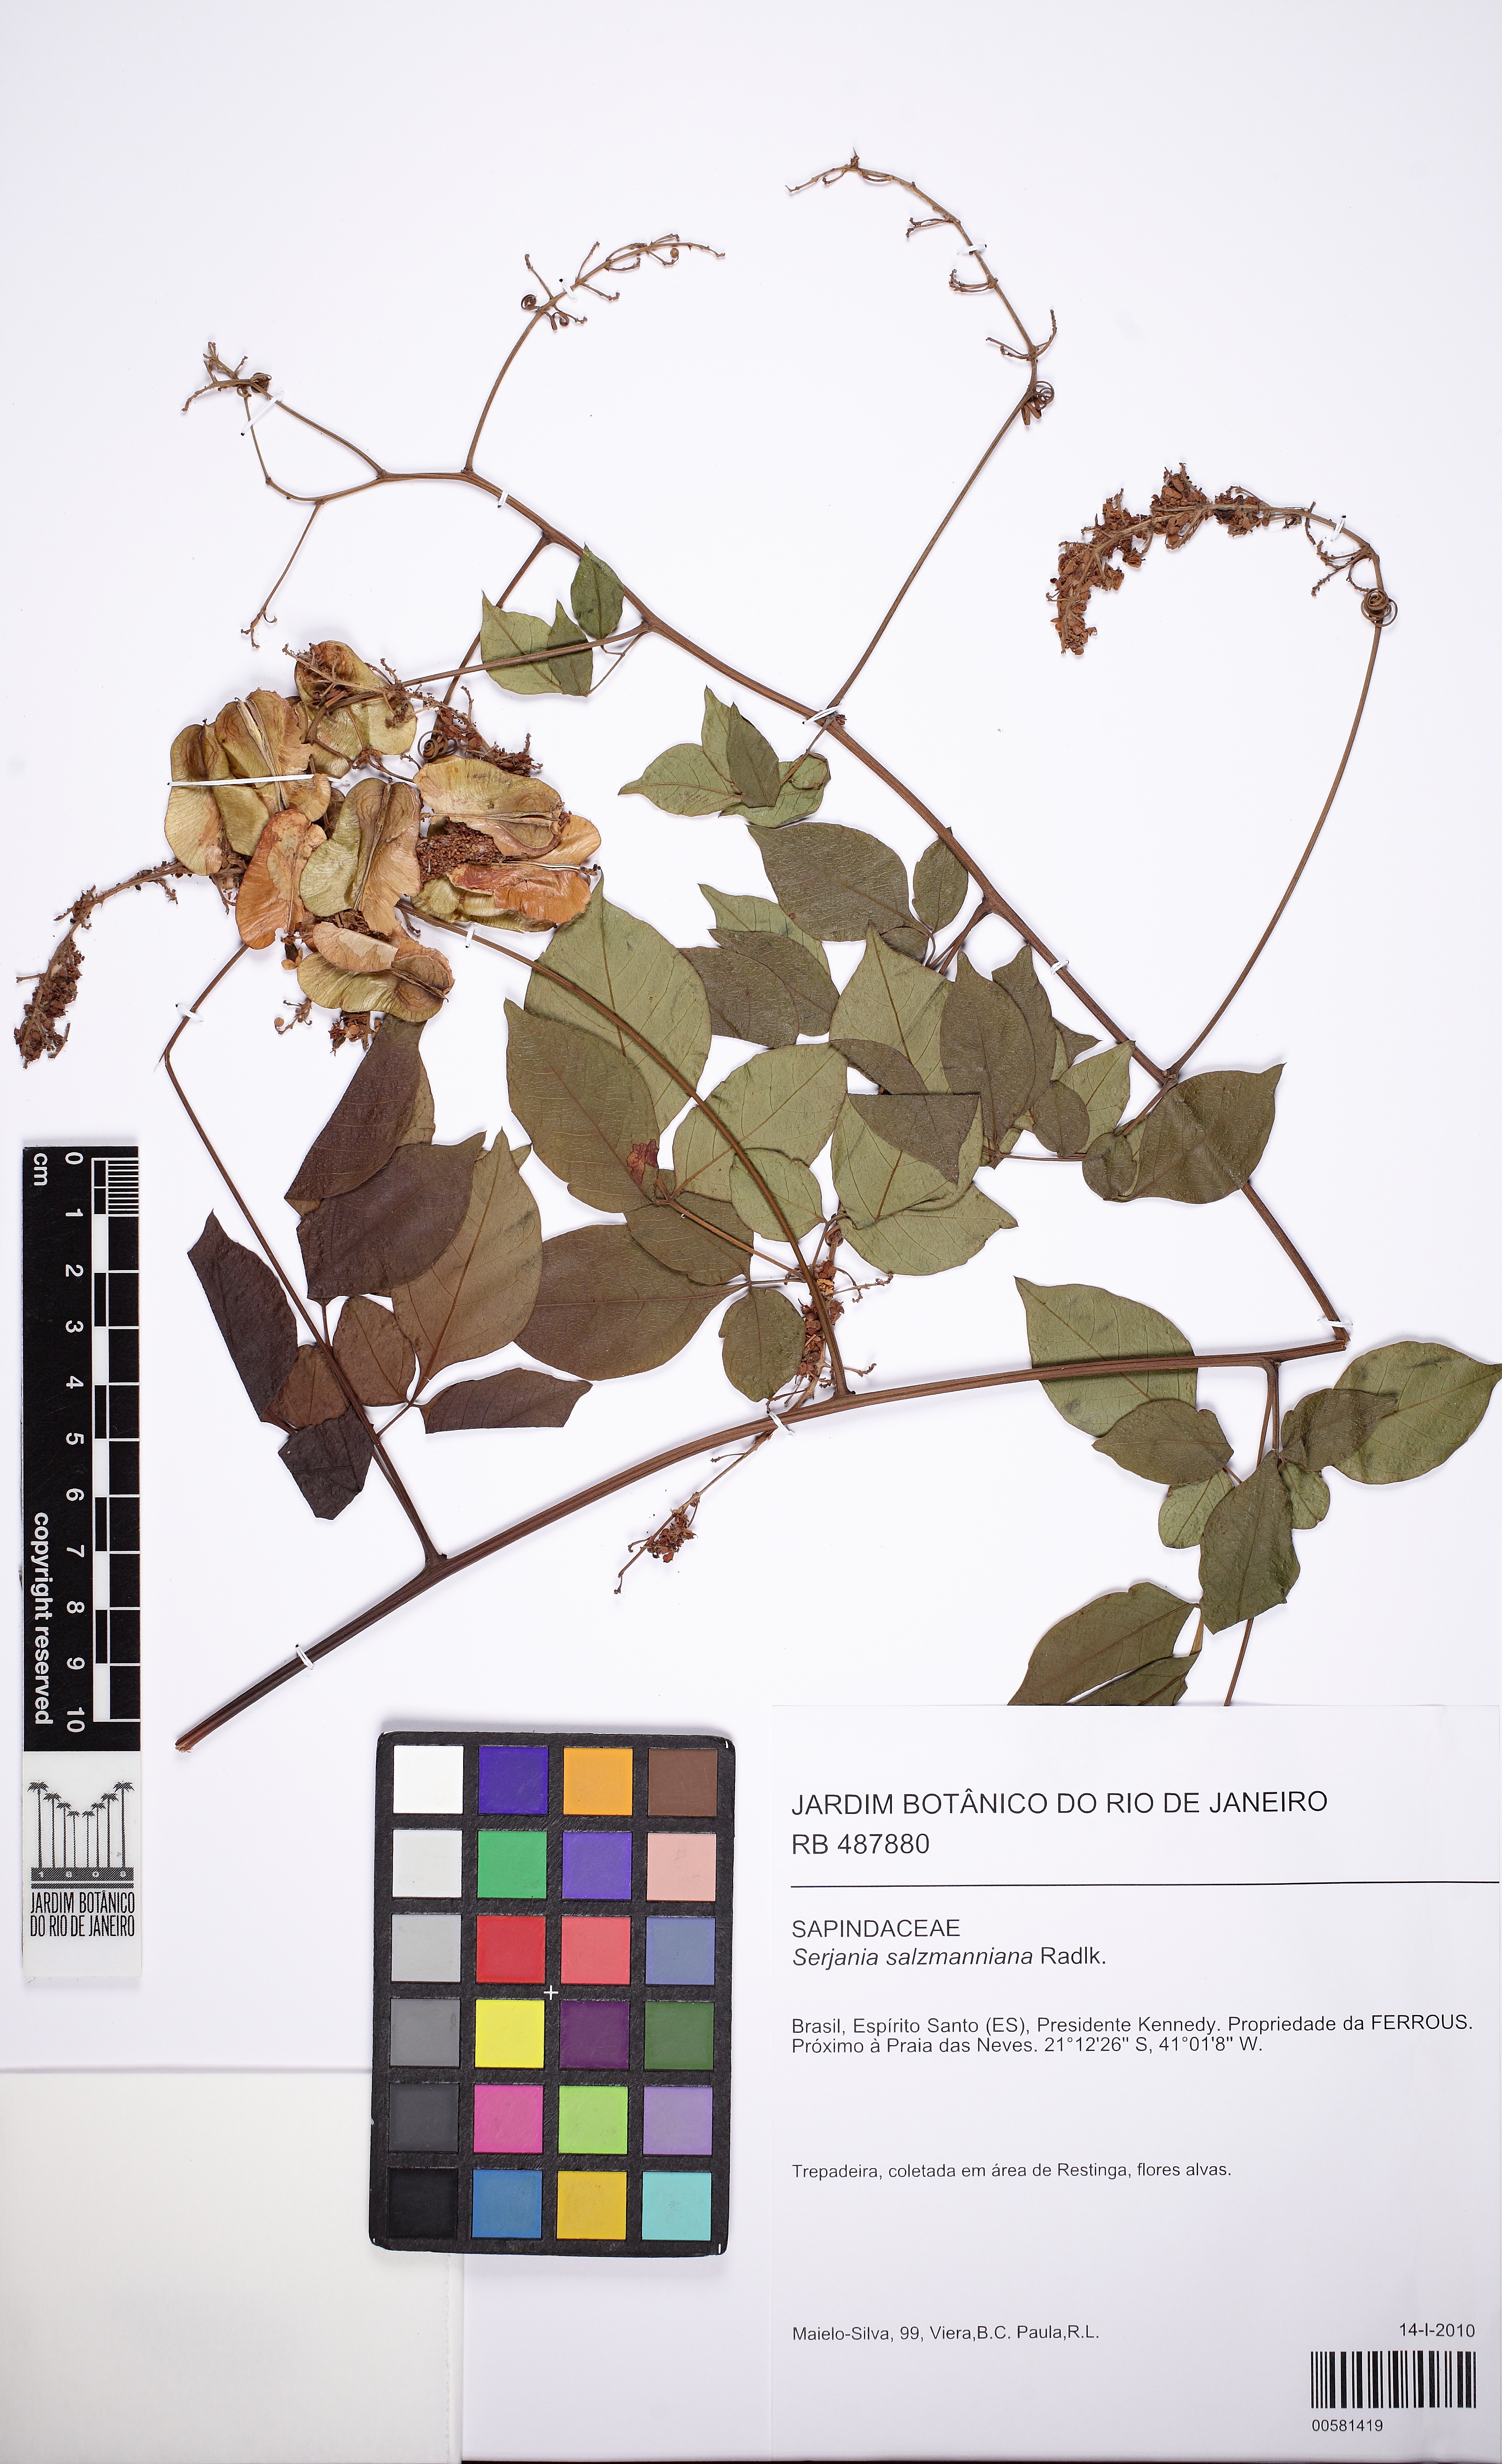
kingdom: Plantae
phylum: Tracheophyta
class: Magnoliopsida
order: Sapindales
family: Sapindaceae
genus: Serjania
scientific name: Serjania salzmanniana
